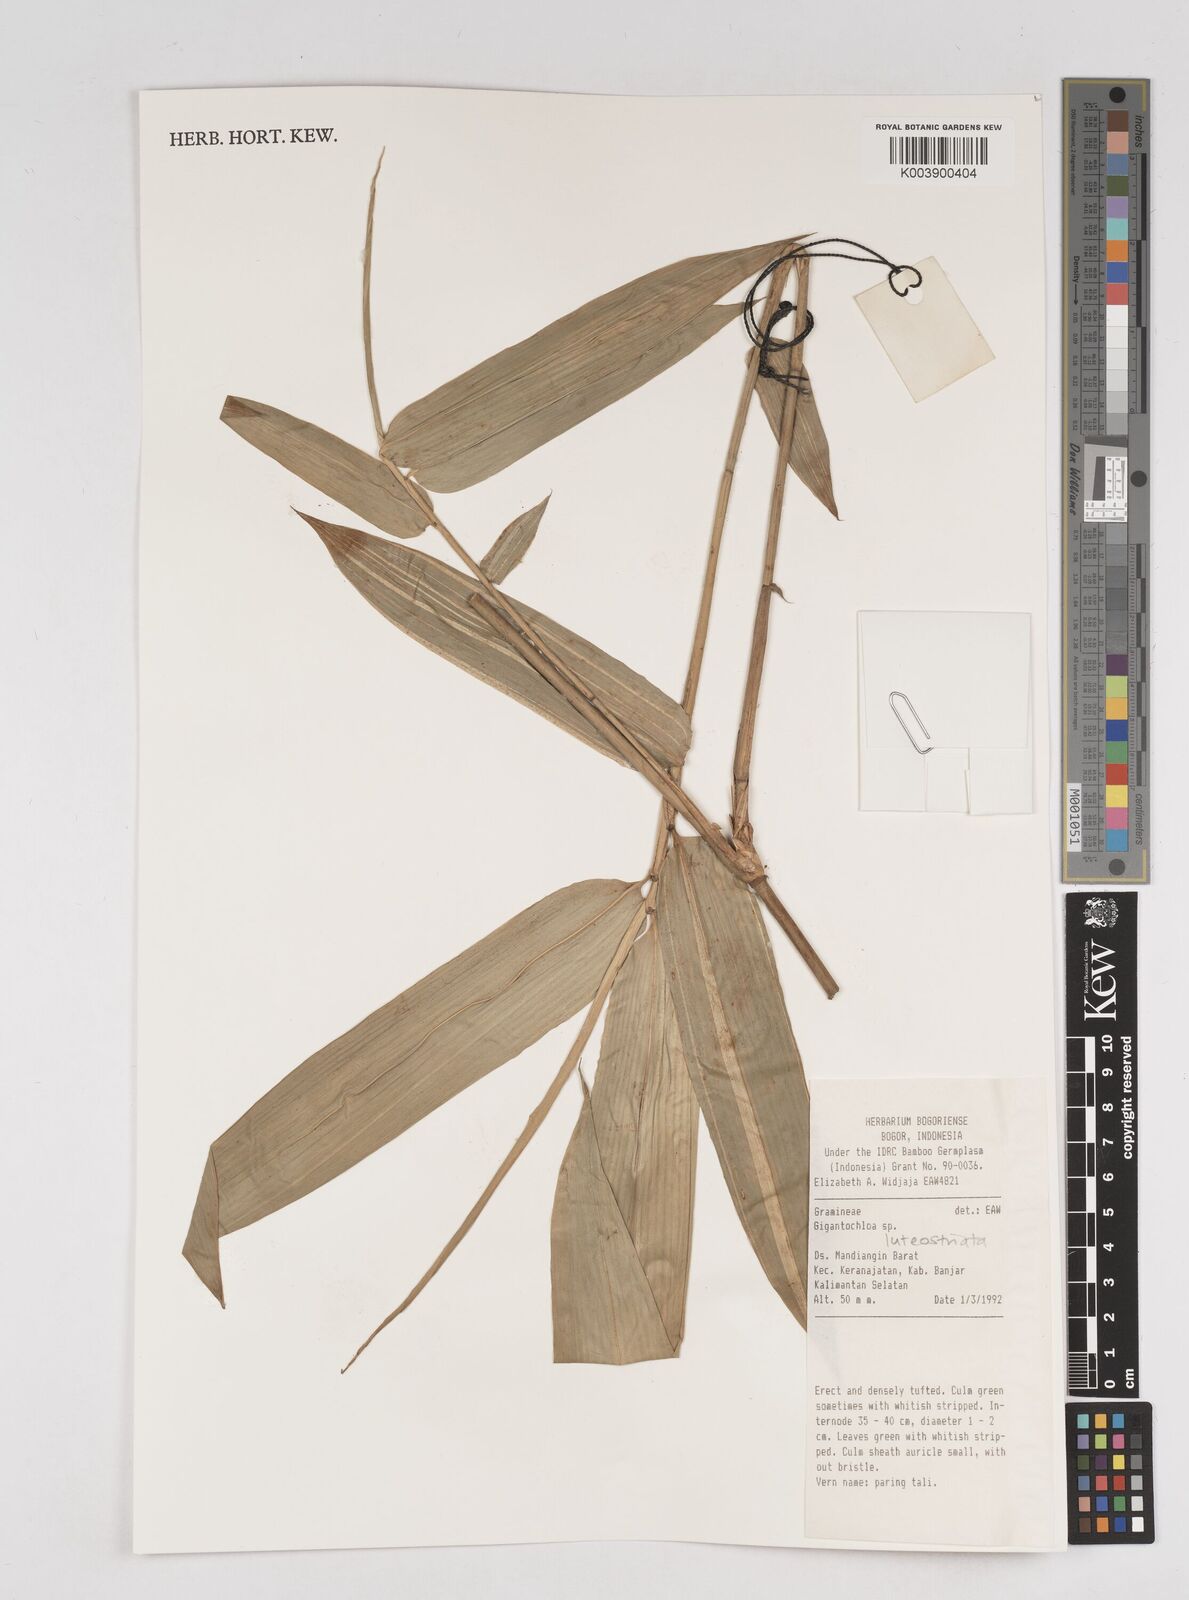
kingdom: Plantae
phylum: Tracheophyta
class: Liliopsida
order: Poales
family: Poaceae
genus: Gigantochloa
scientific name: Gigantochloa luteostriata
